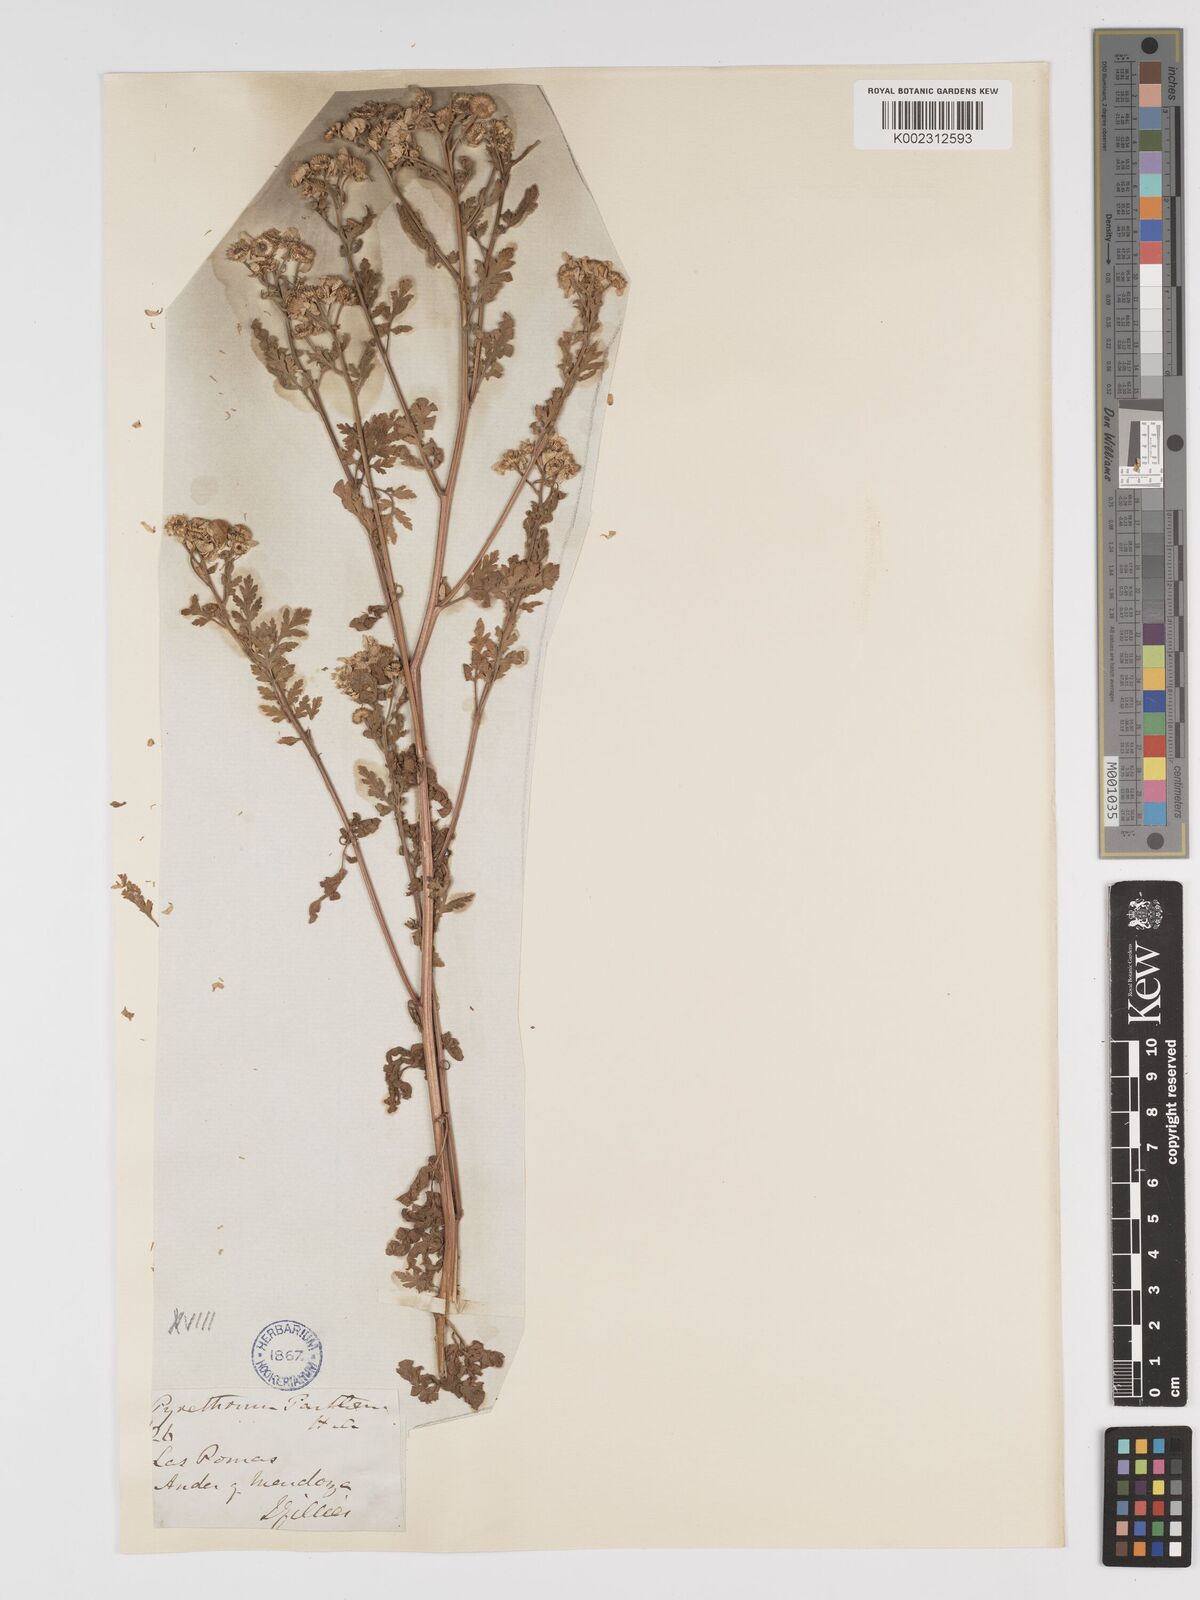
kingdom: Plantae
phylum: Tracheophyta
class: Magnoliopsida
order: Asterales
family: Asteraceae
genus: Tanacetum
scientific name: Tanacetum parthenium
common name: Feverfew
